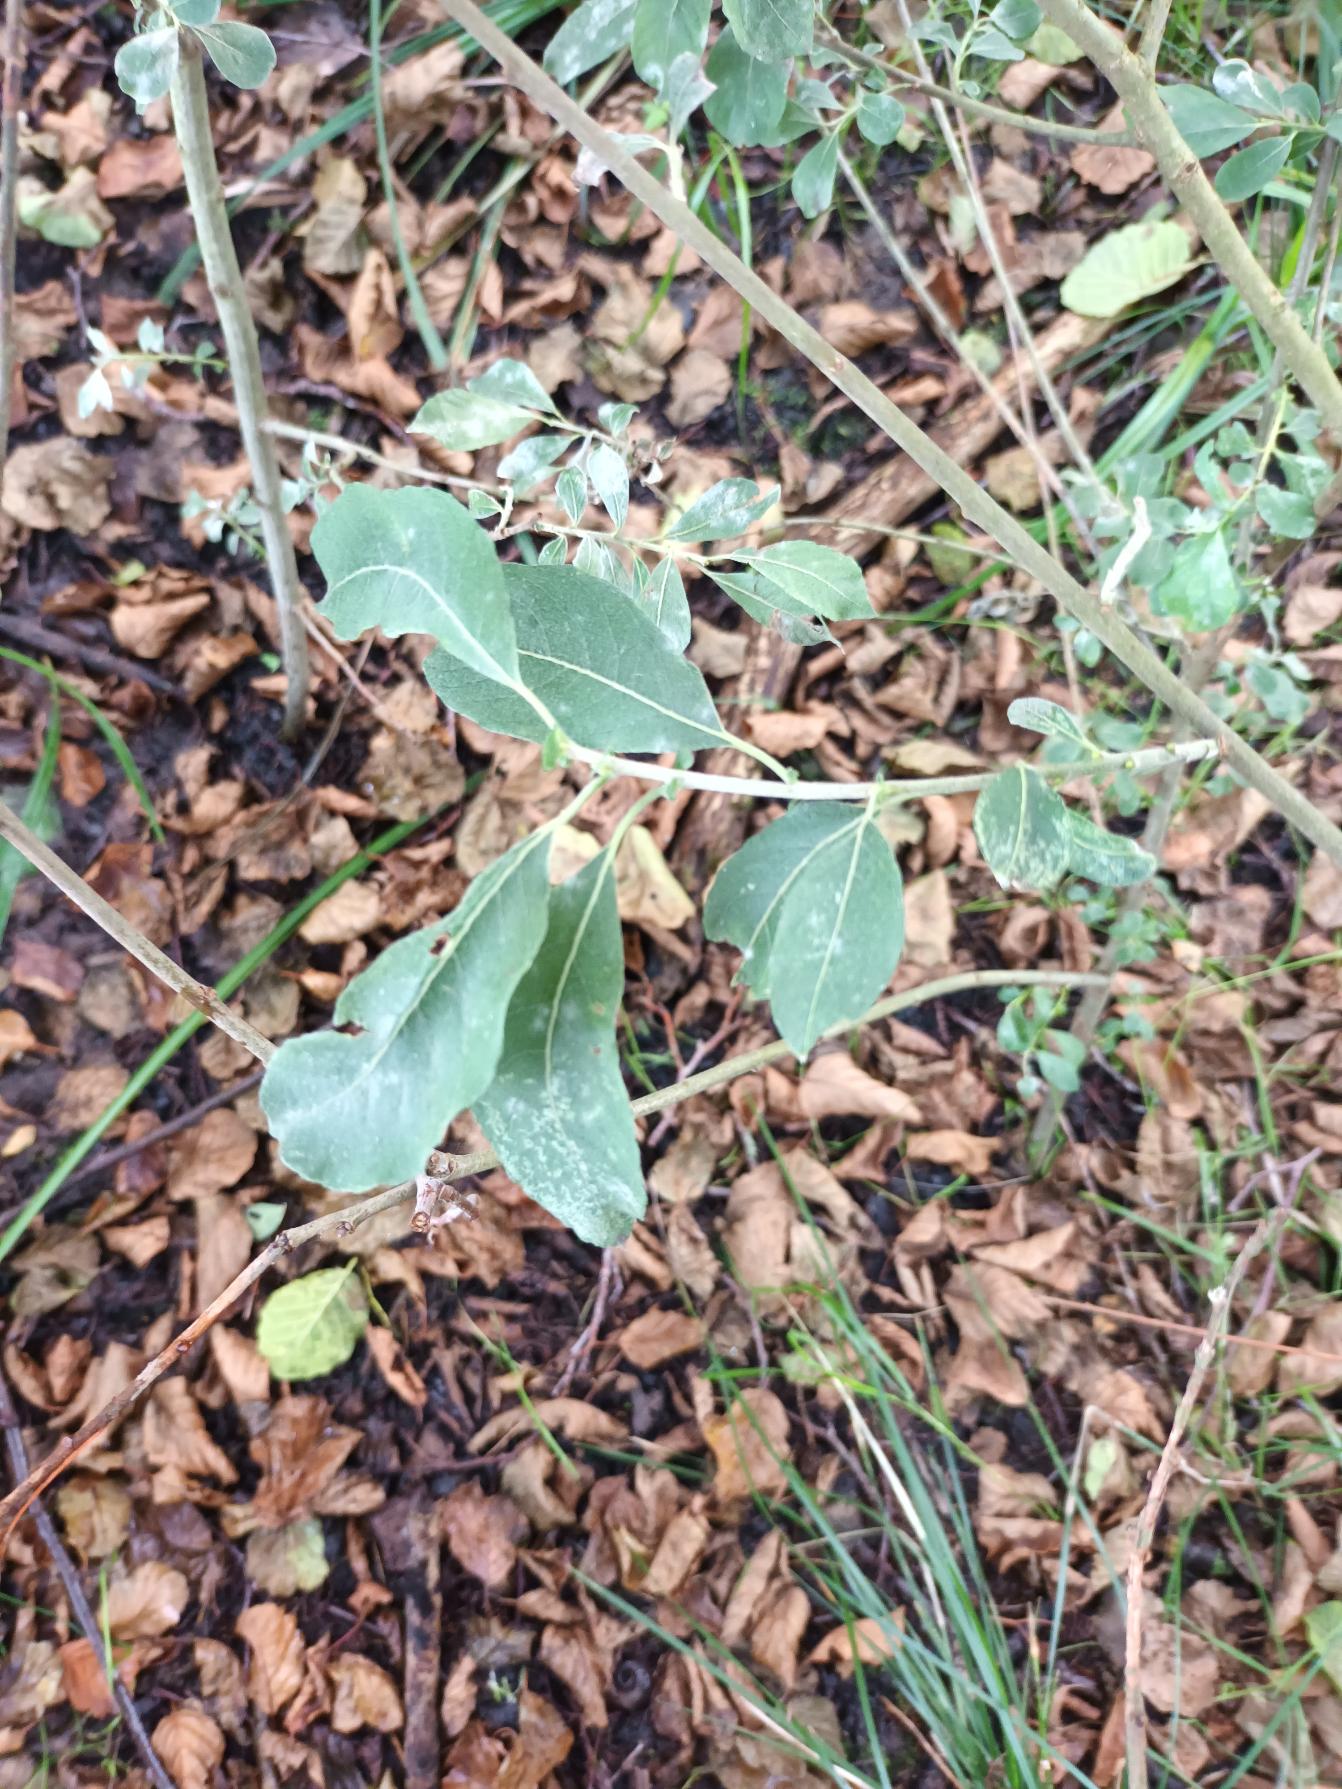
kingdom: Plantae
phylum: Tracheophyta
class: Magnoliopsida
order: Malpighiales
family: Salicaceae
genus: Salix
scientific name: Salix cinerea
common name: Grå-pil
